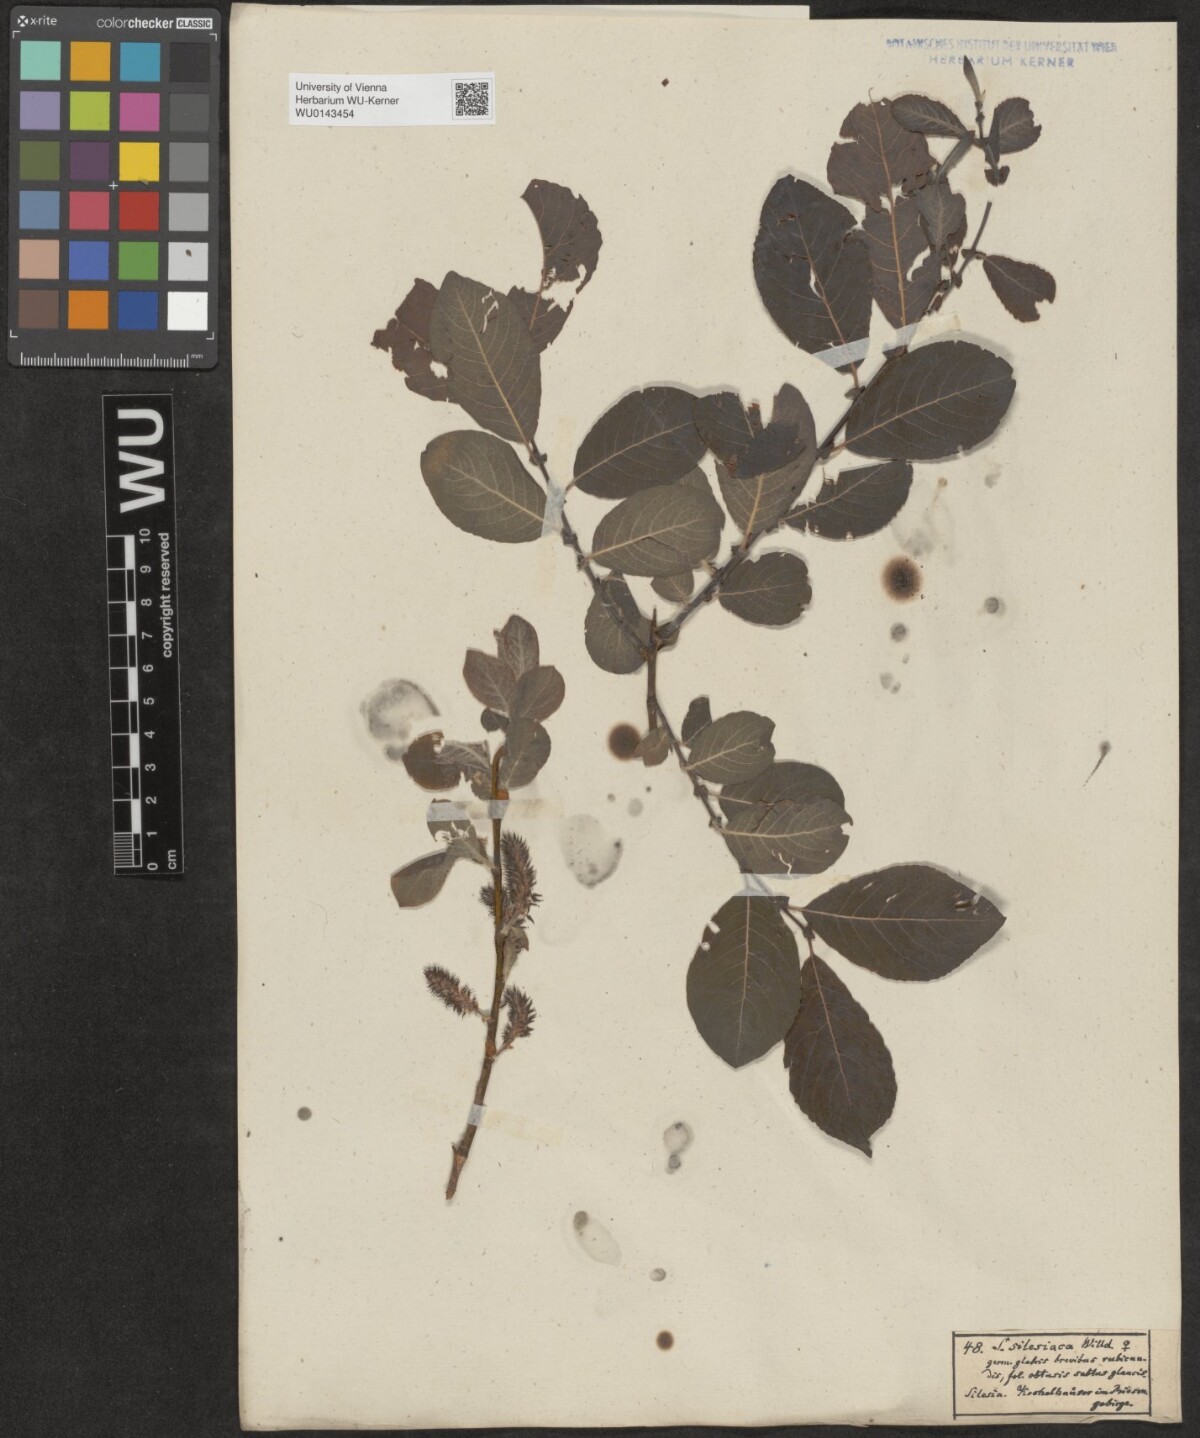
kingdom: Plantae
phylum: Tracheophyta
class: Magnoliopsida
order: Malpighiales
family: Salicaceae
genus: Salix
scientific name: Salix silesiaca
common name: Silesian willow
